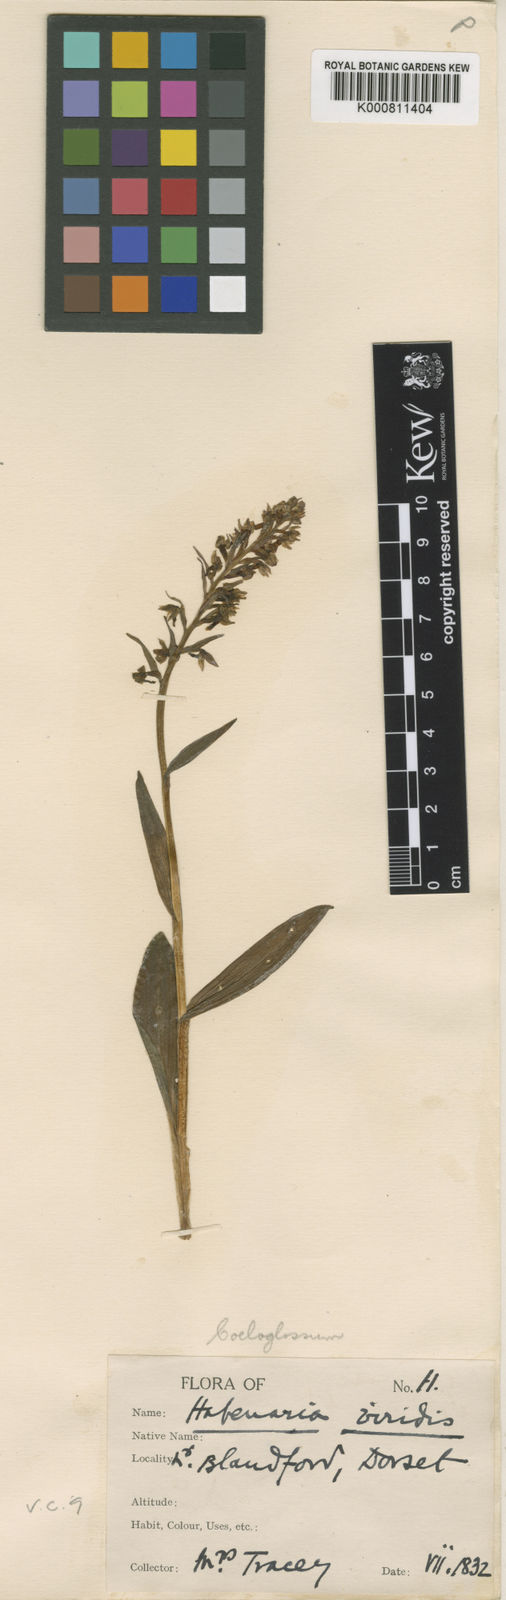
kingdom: Plantae
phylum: Tracheophyta
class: Liliopsida
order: Asparagales
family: Orchidaceae
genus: Dactylorhiza
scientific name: Dactylorhiza viridis
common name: Longbract frog orchid
